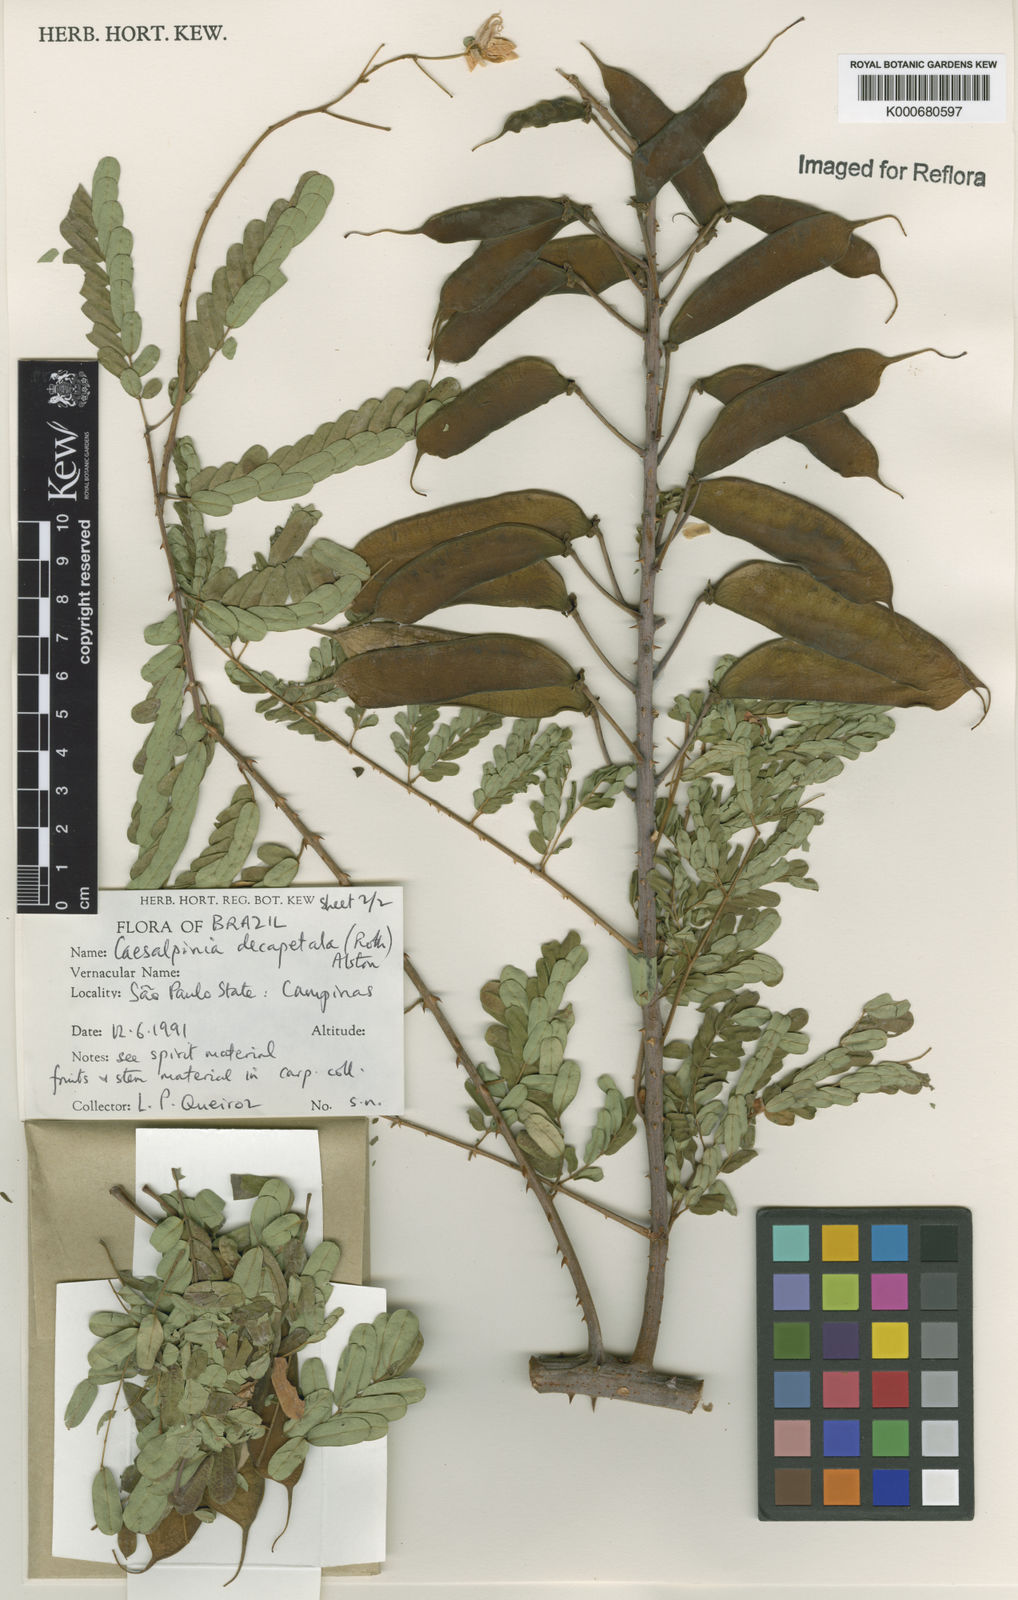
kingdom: Plantae
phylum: Tracheophyta
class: Magnoliopsida
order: Fabales
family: Fabaceae
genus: Biancaea
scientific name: Biancaea decapetala
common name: Cat's claw
